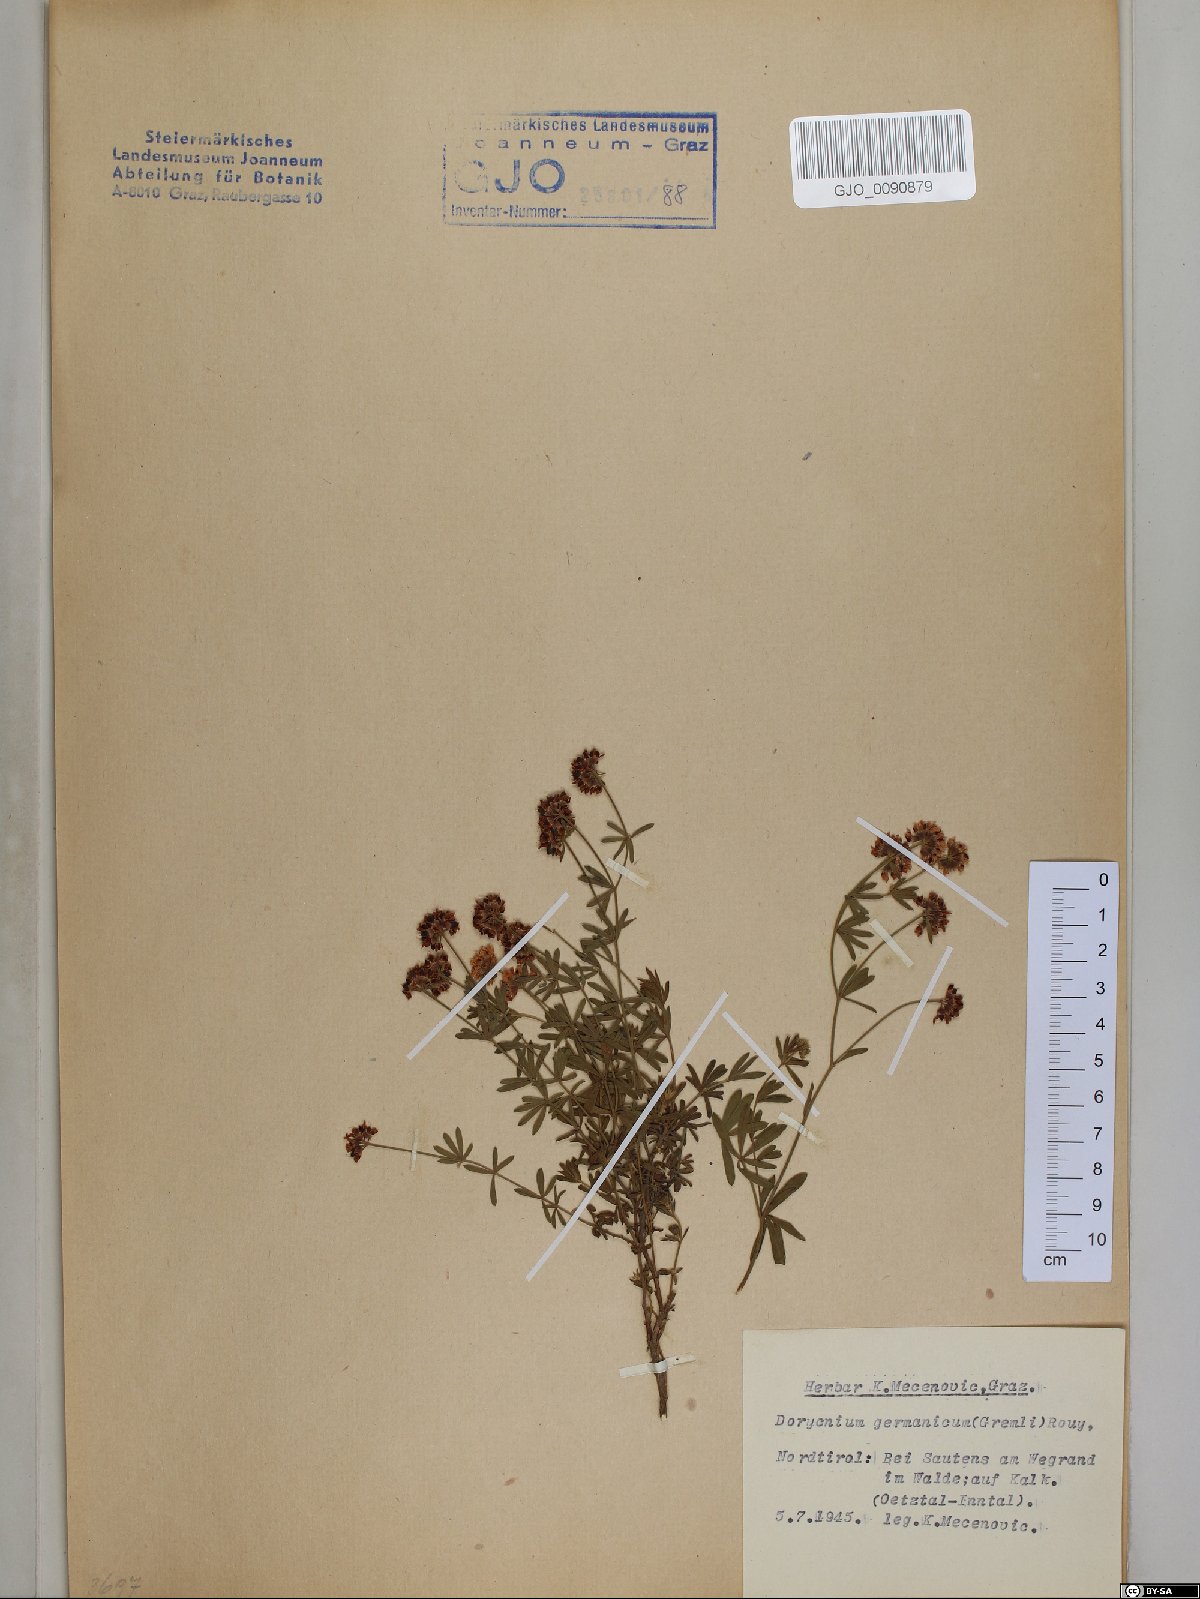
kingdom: Plantae
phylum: Tracheophyta
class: Magnoliopsida
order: Fabales
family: Fabaceae
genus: Lotus
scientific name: Lotus germanicus
